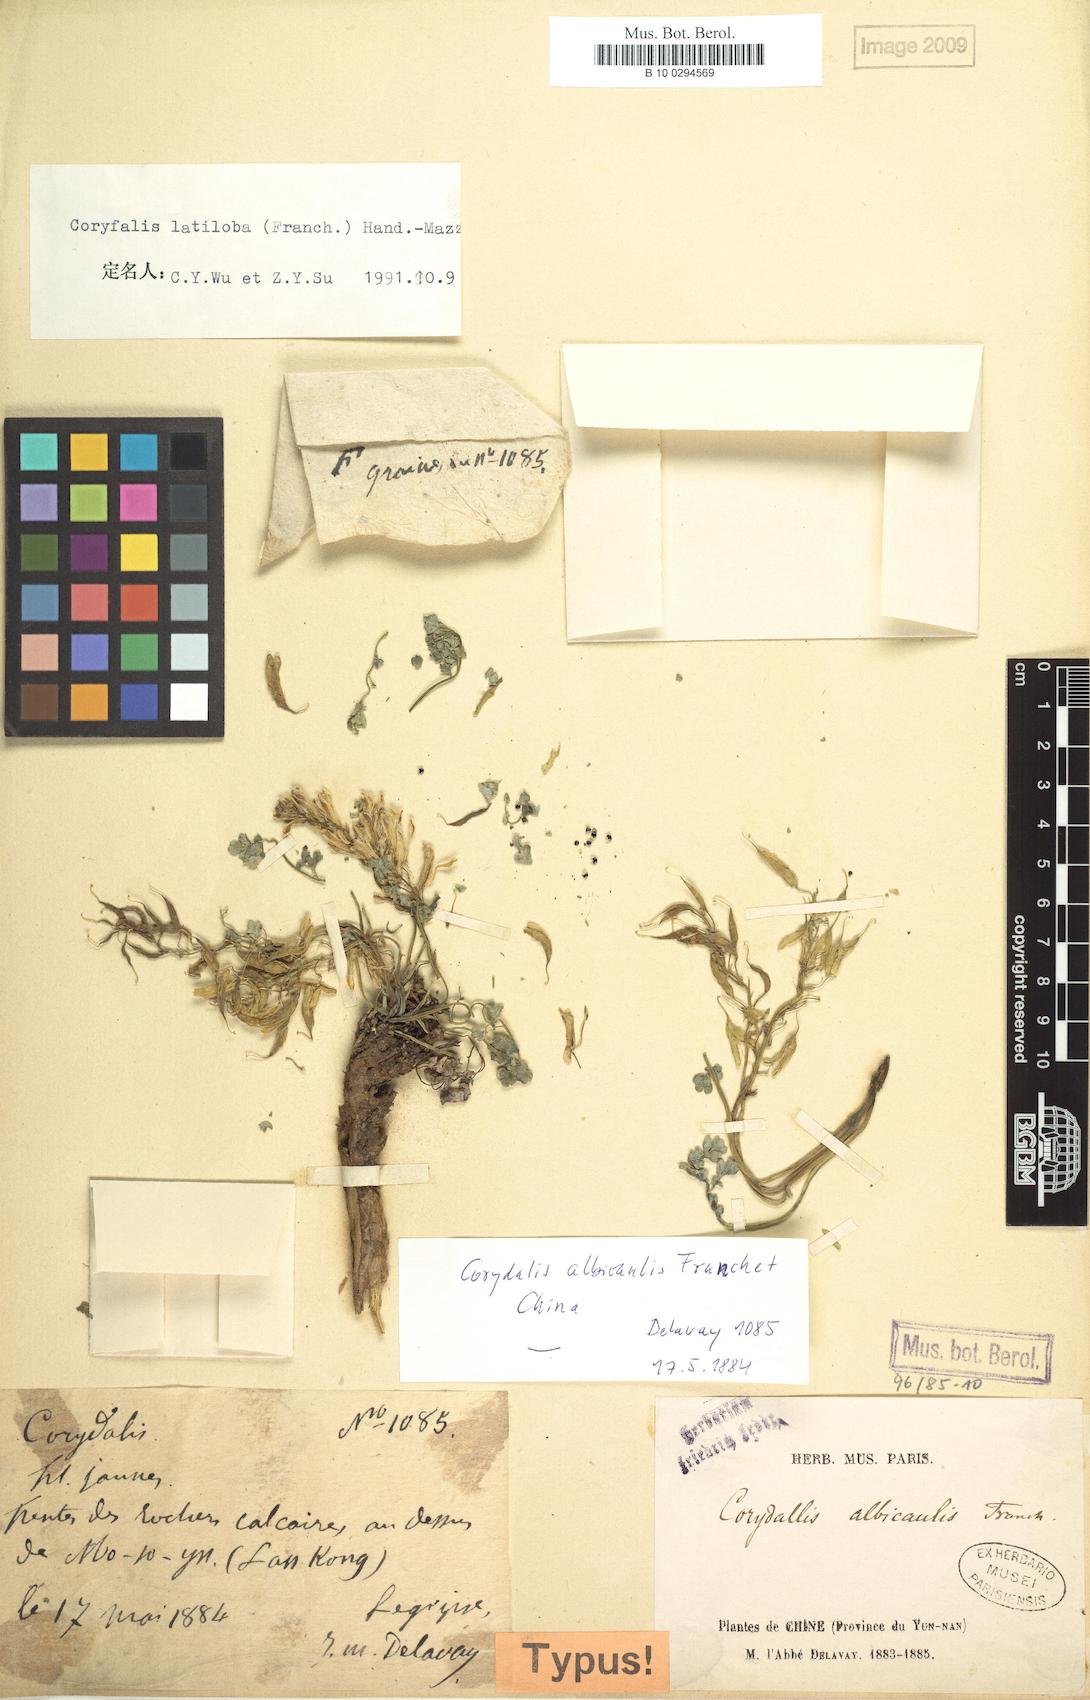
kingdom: Plantae
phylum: Tracheophyta
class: Magnoliopsida
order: Ranunculales
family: Papaveraceae
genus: Corydalis
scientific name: Corydalis adunca
